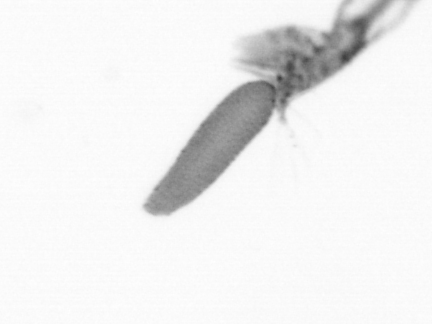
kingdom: Animalia
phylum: Arthropoda
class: Copepoda
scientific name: Copepoda
